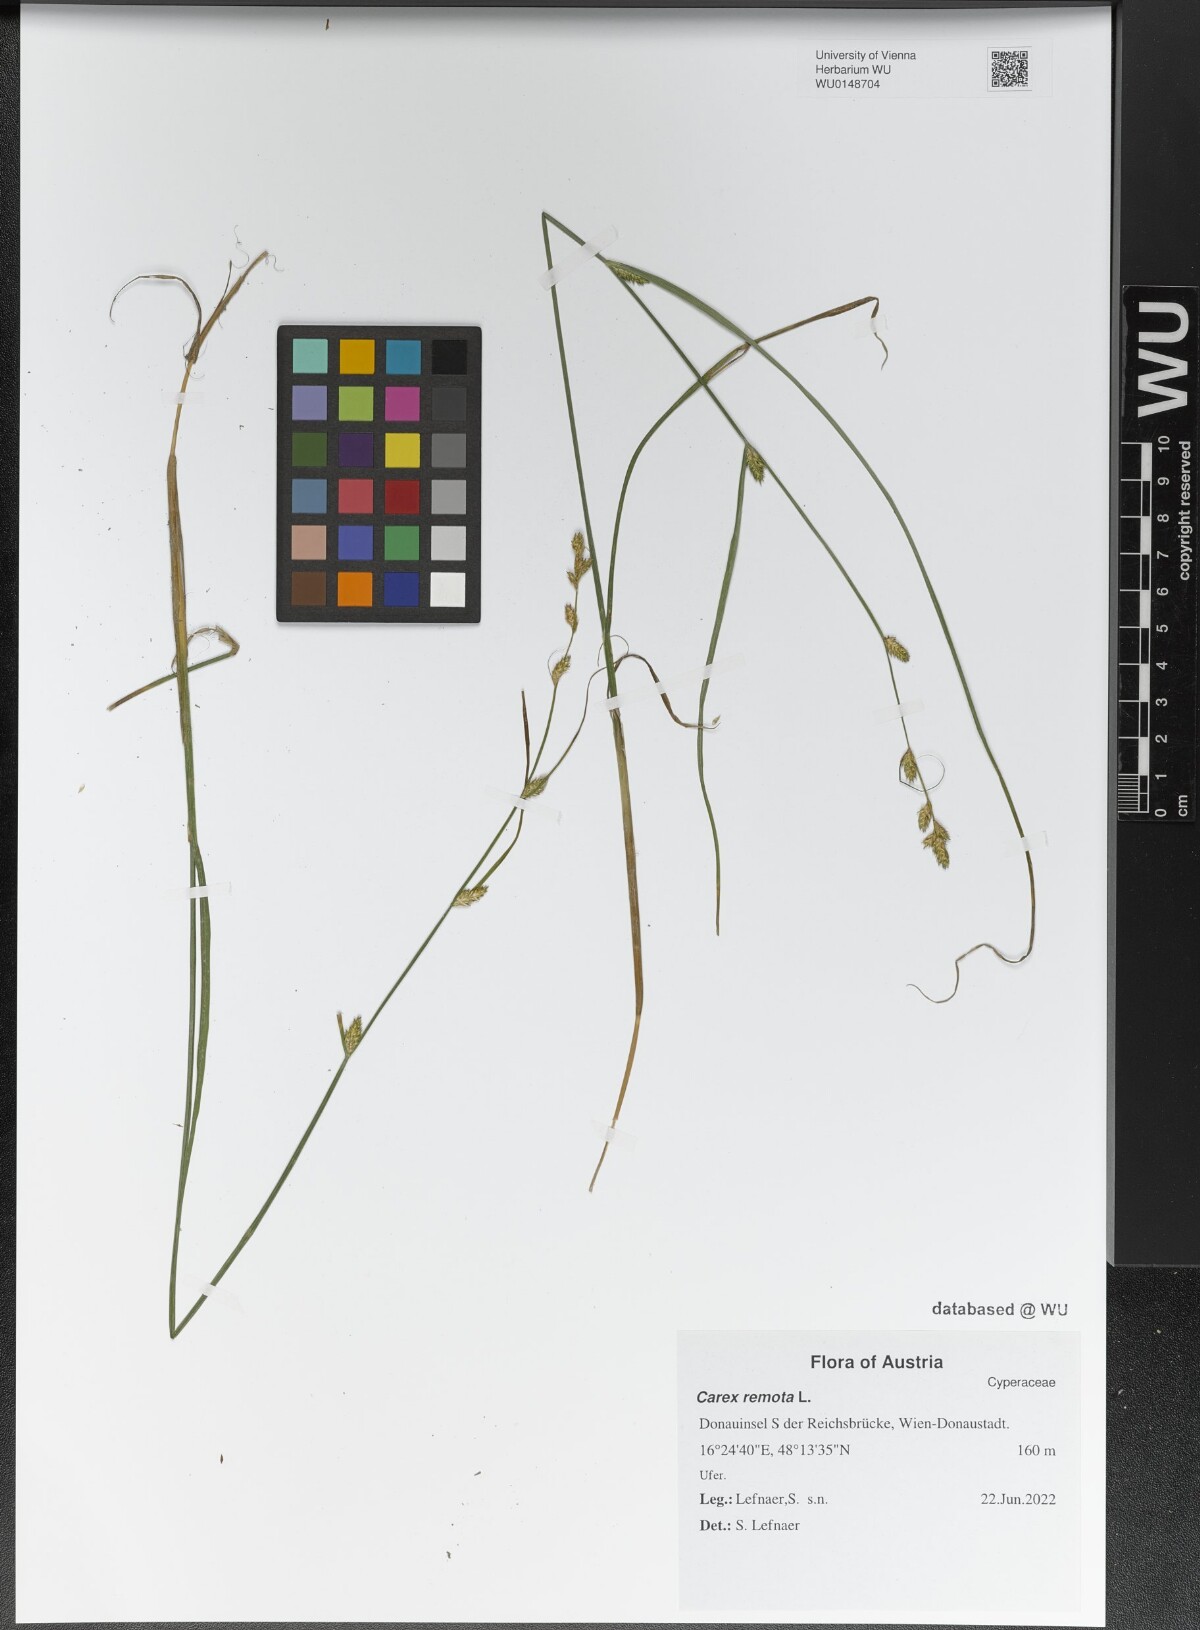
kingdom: Plantae
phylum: Tracheophyta
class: Liliopsida
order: Poales
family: Cyperaceae
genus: Carex
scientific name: Carex remota
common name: Remote sedge
